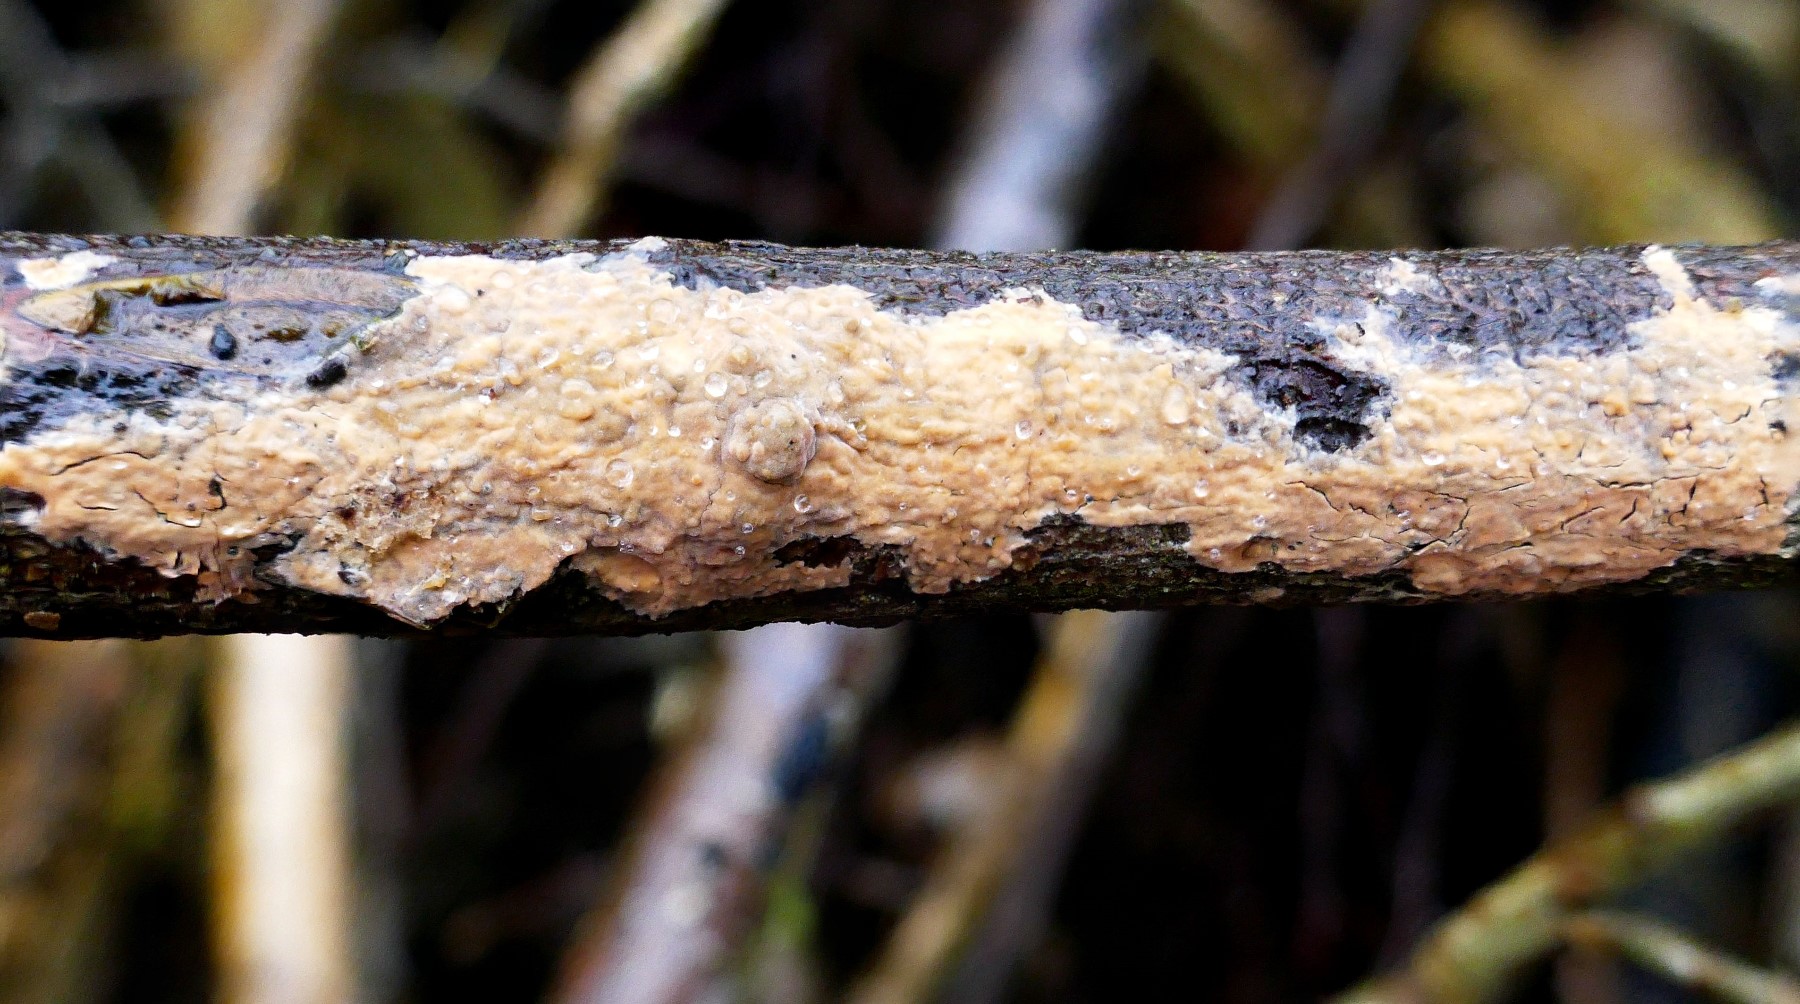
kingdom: Fungi
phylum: Basidiomycota
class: Agaricomycetes
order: Russulales
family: Peniophoraceae
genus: Peniophora
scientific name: Peniophora incarnata
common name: laksefarvet voksskind
